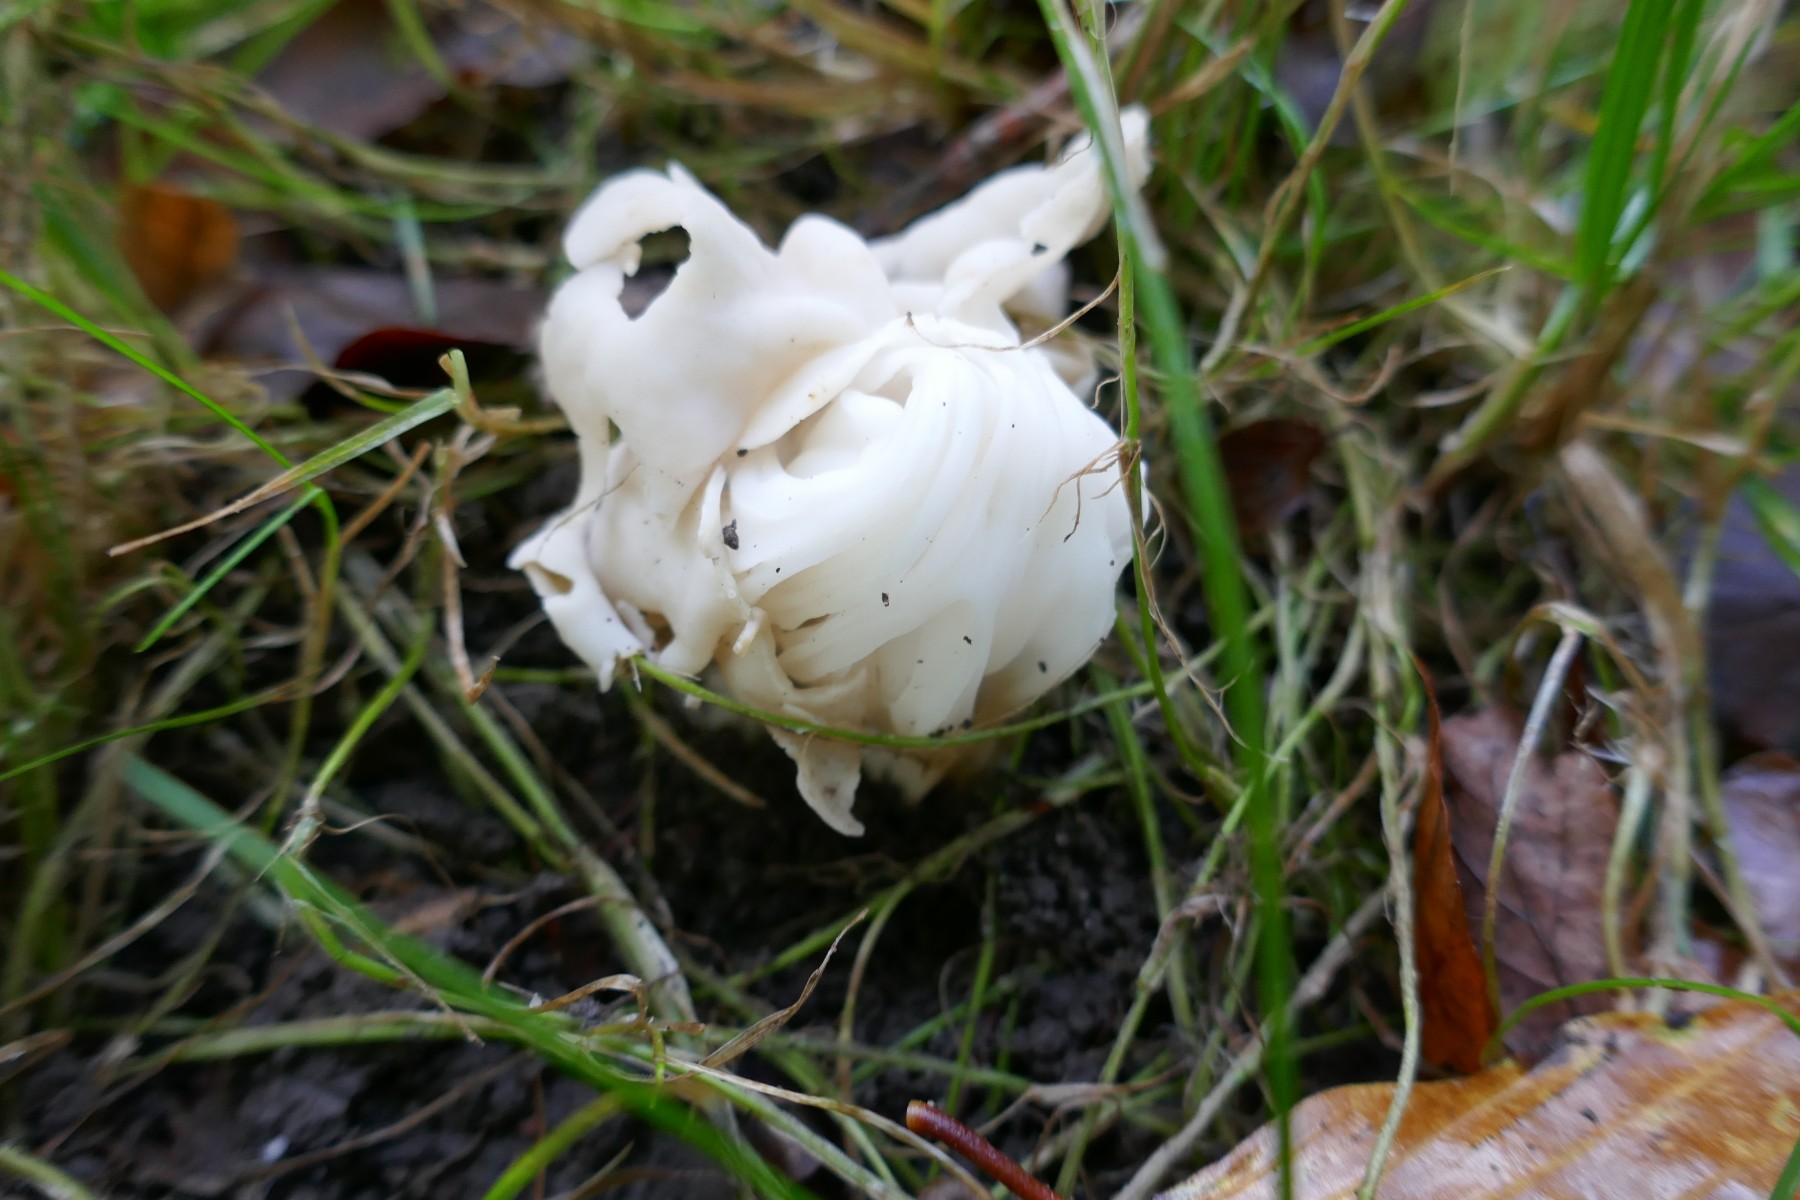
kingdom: Fungi
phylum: Ascomycota
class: Pezizomycetes
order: Pezizales
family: Helvellaceae
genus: Helvella
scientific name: Helvella crispa
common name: kruset foldhat
